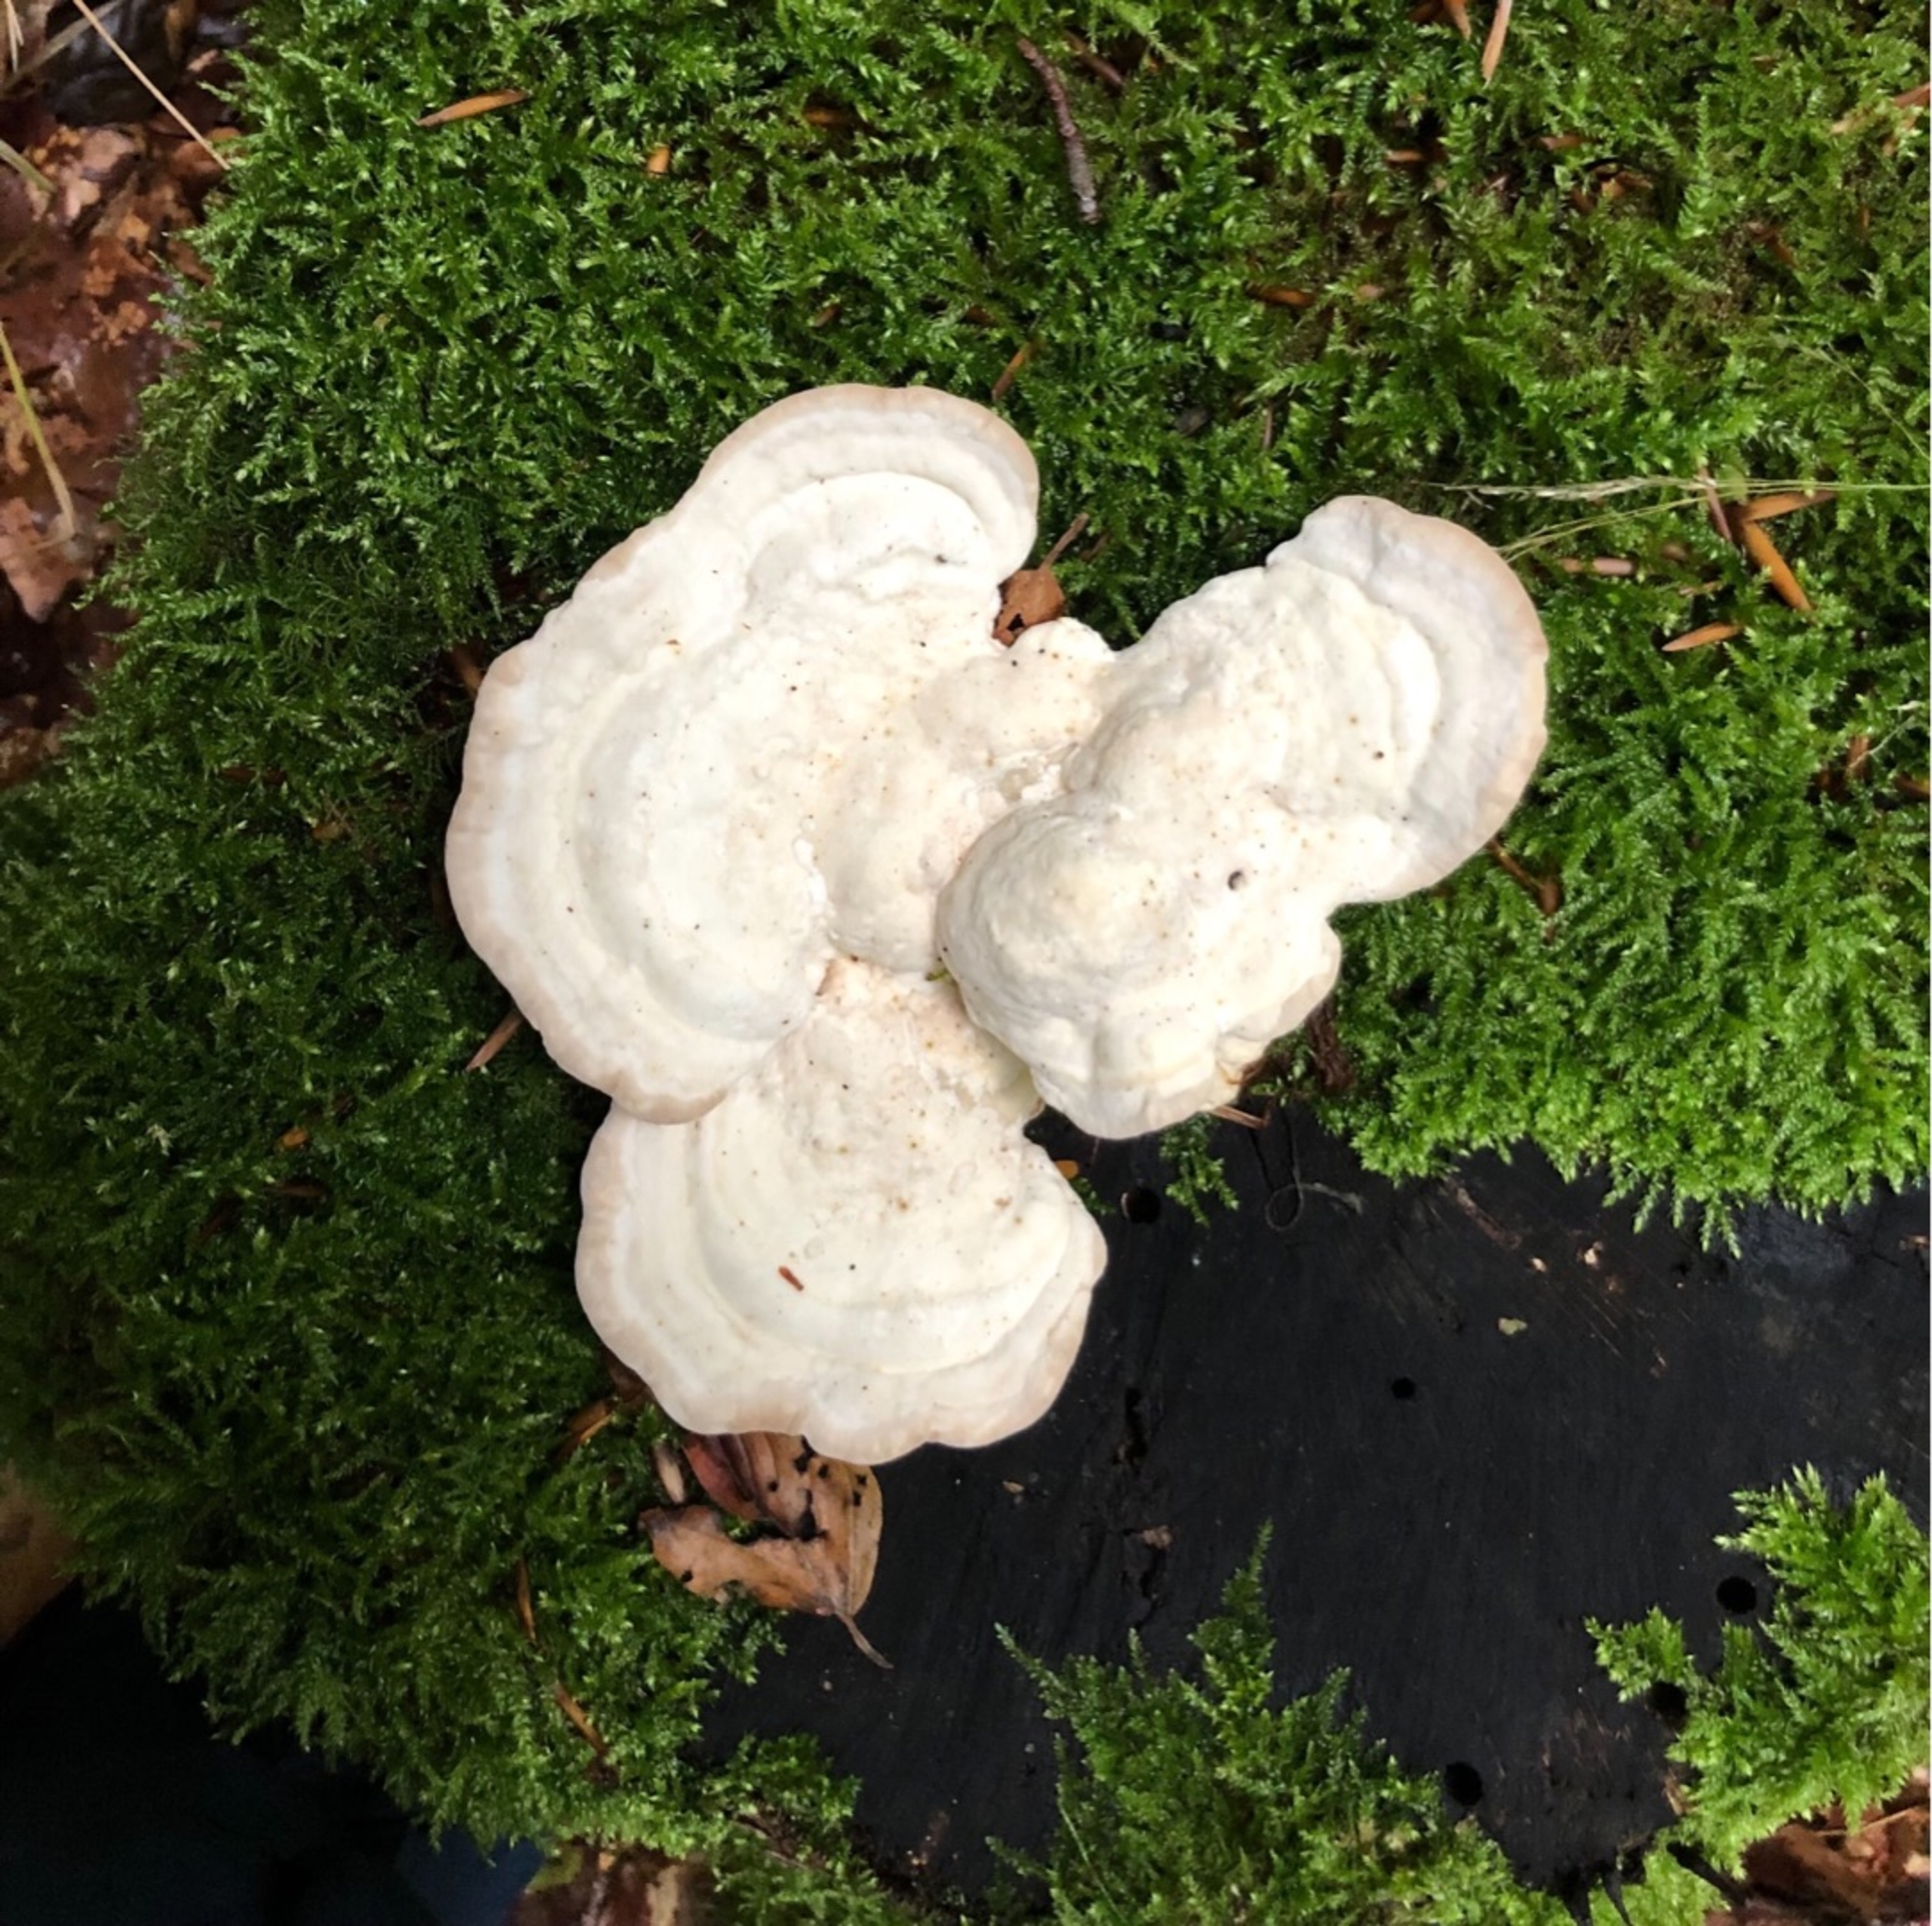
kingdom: Fungi
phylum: Basidiomycota
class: Agaricomycetes
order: Polyporales
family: Polyporaceae
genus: Trametes
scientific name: Trametes gibbosa
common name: Puklet læderporesvamp
